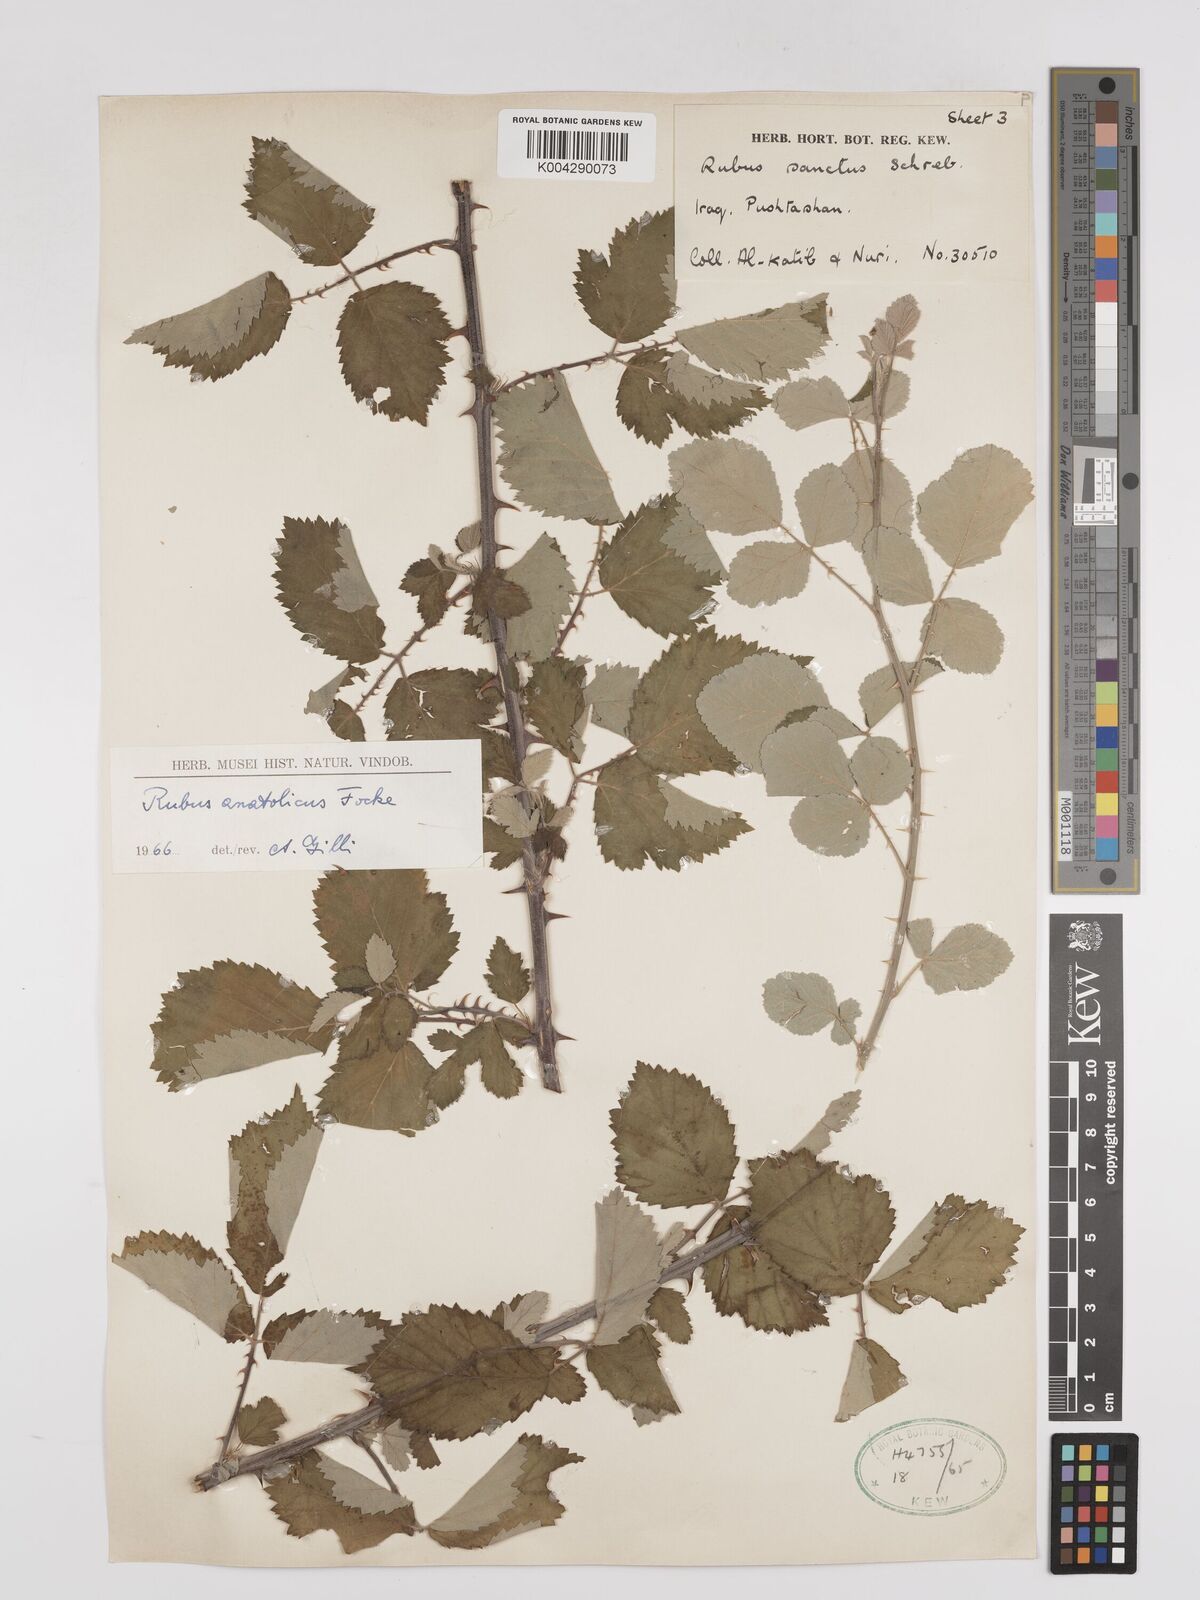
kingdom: Plantae
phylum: Tracheophyta
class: Magnoliopsida
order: Rosales
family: Rosaceae
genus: Rubus
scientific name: Rubus sanctus
